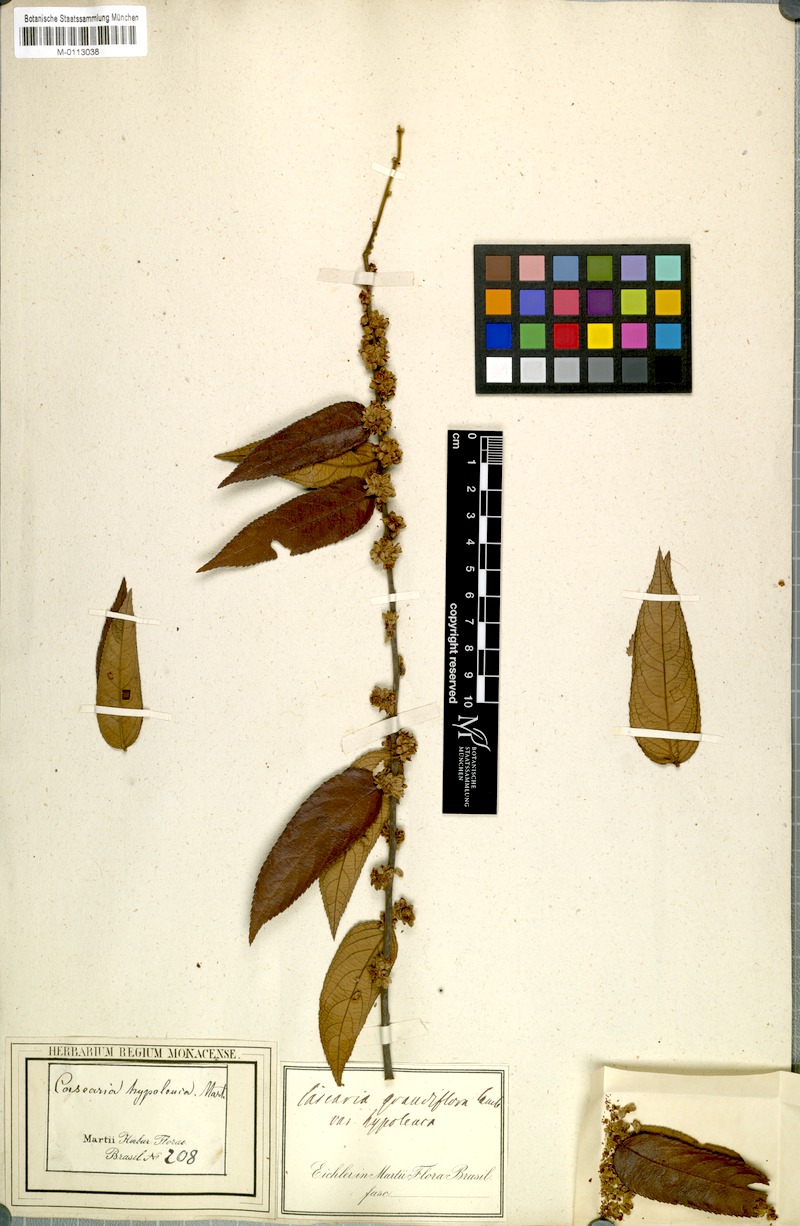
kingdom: Plantae
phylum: Tracheophyta
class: Magnoliopsida
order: Malpighiales
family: Salicaceae
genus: Casearia
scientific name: Casearia grandiflora
